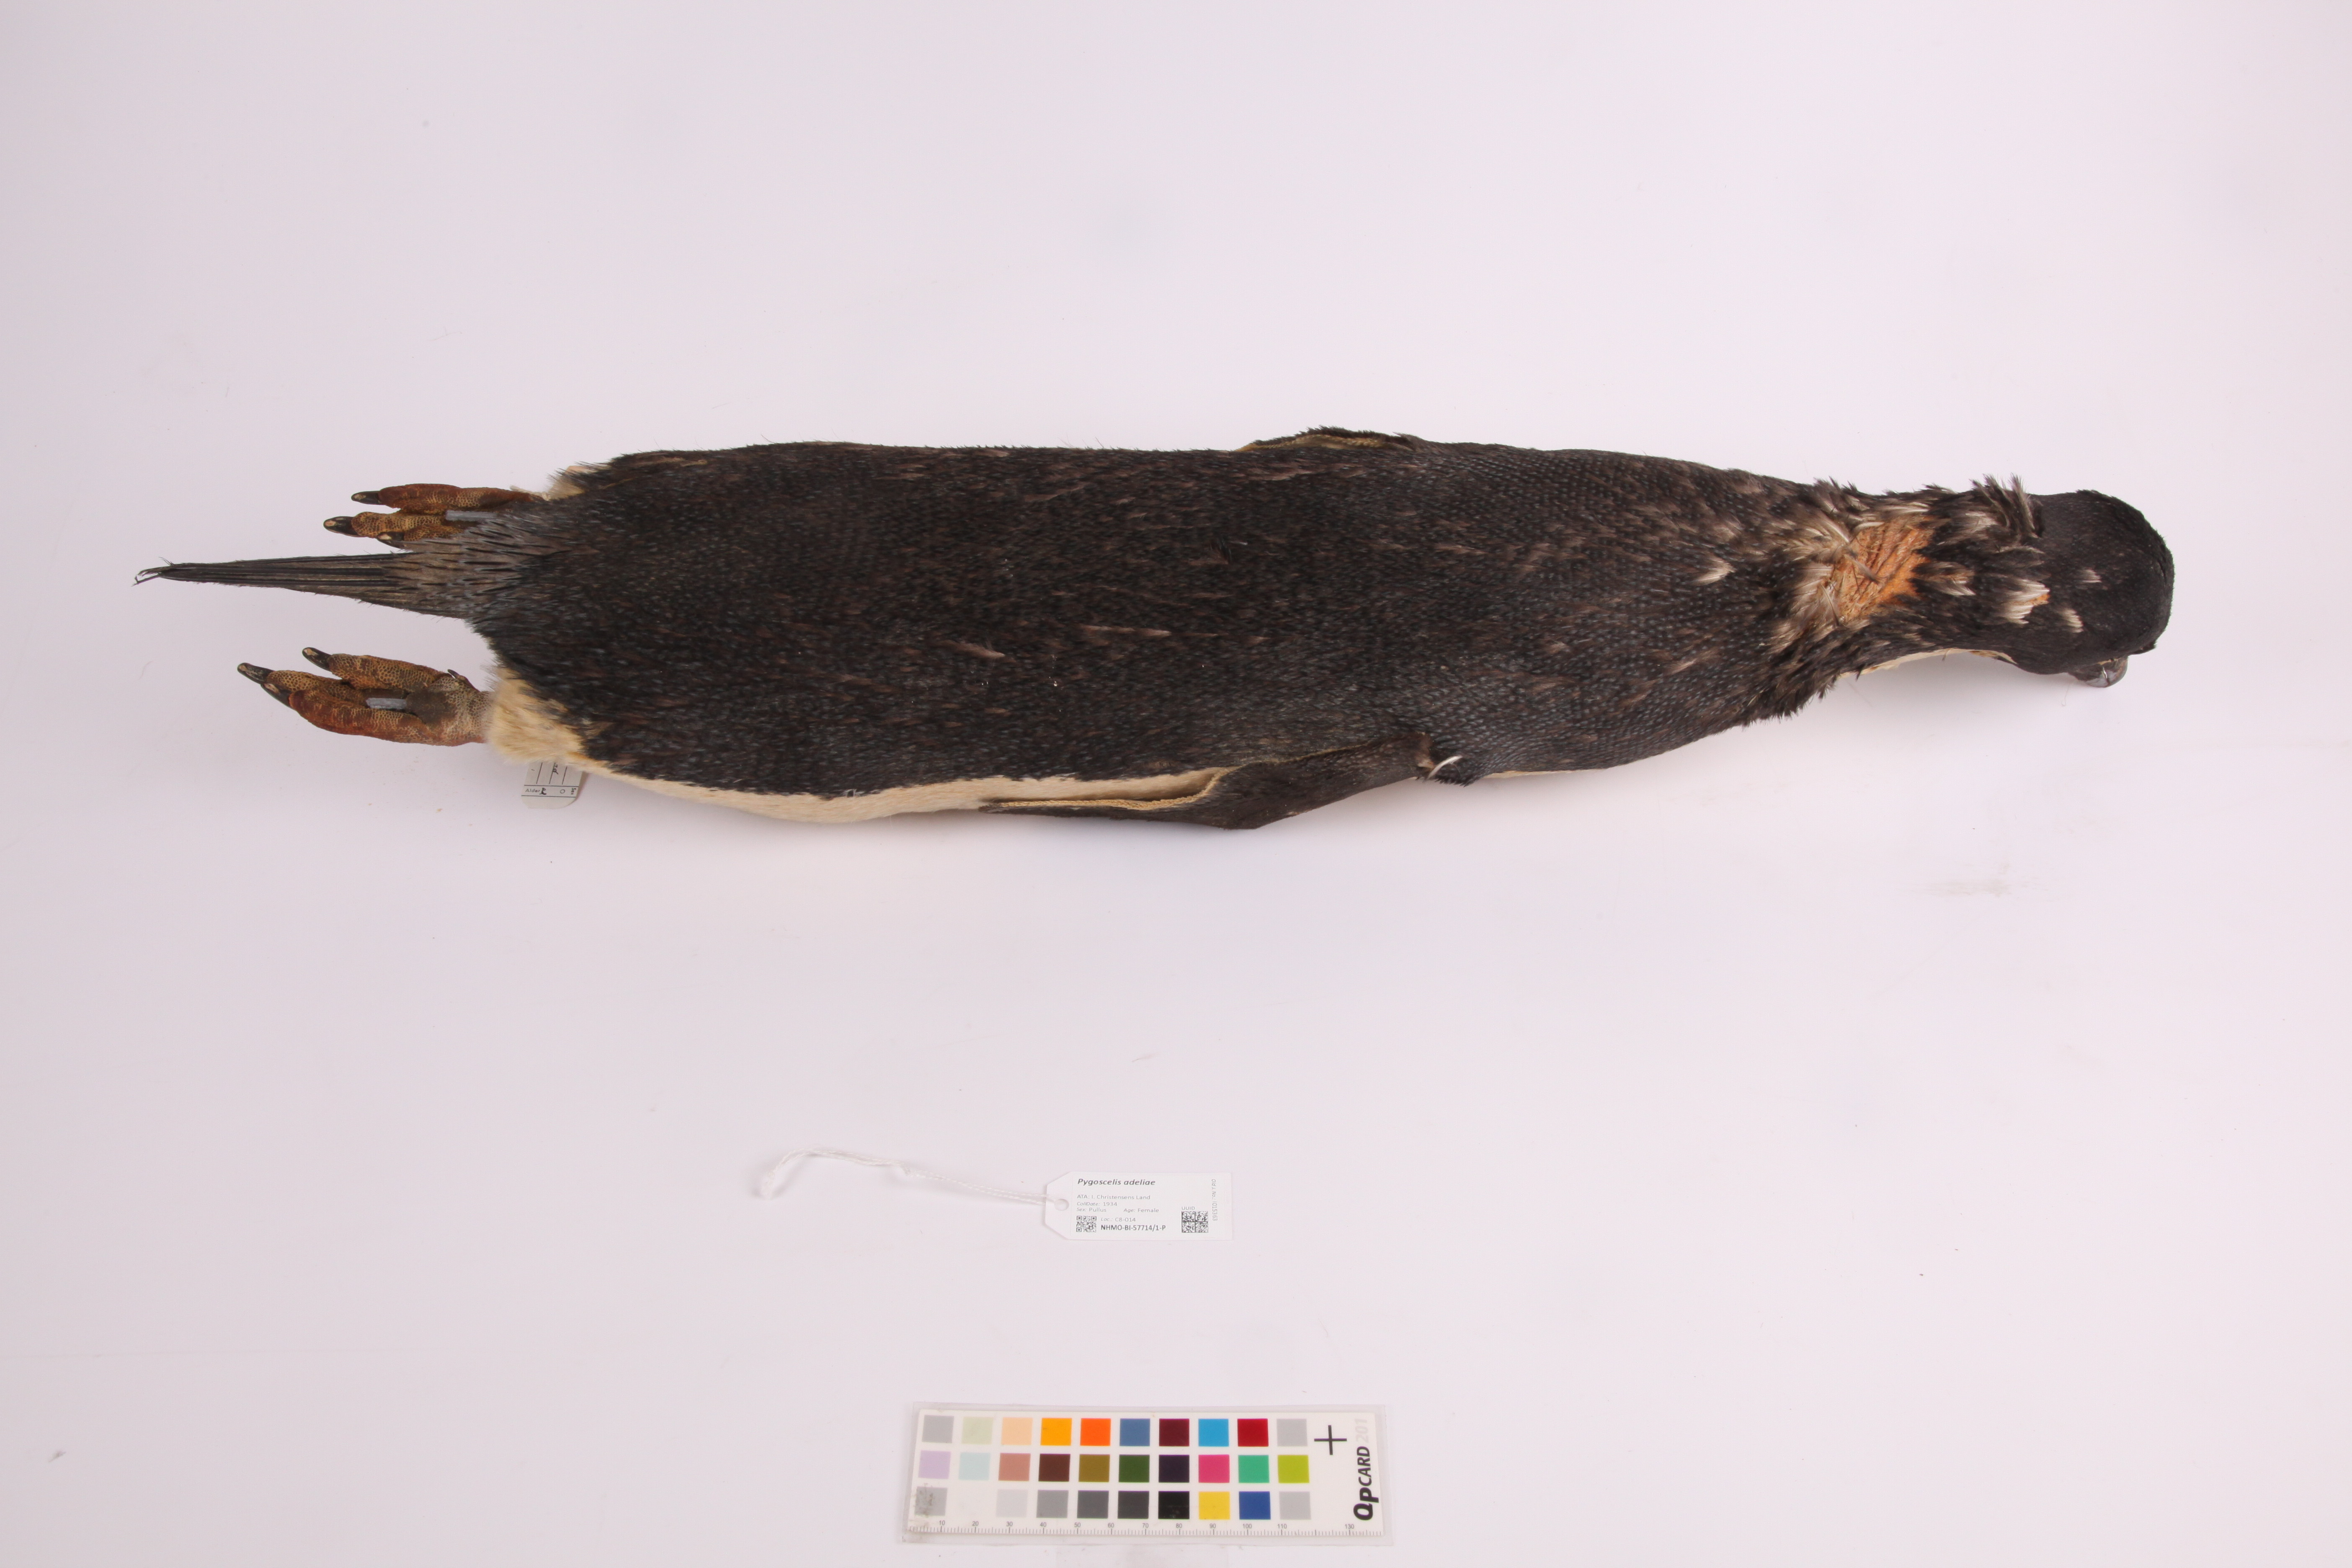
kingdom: Animalia
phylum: Chordata
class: Aves
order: Sphenisciformes
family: Spheniscidae
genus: Pygoscelis
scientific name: Pygoscelis adeliae
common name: Adelie penguin
